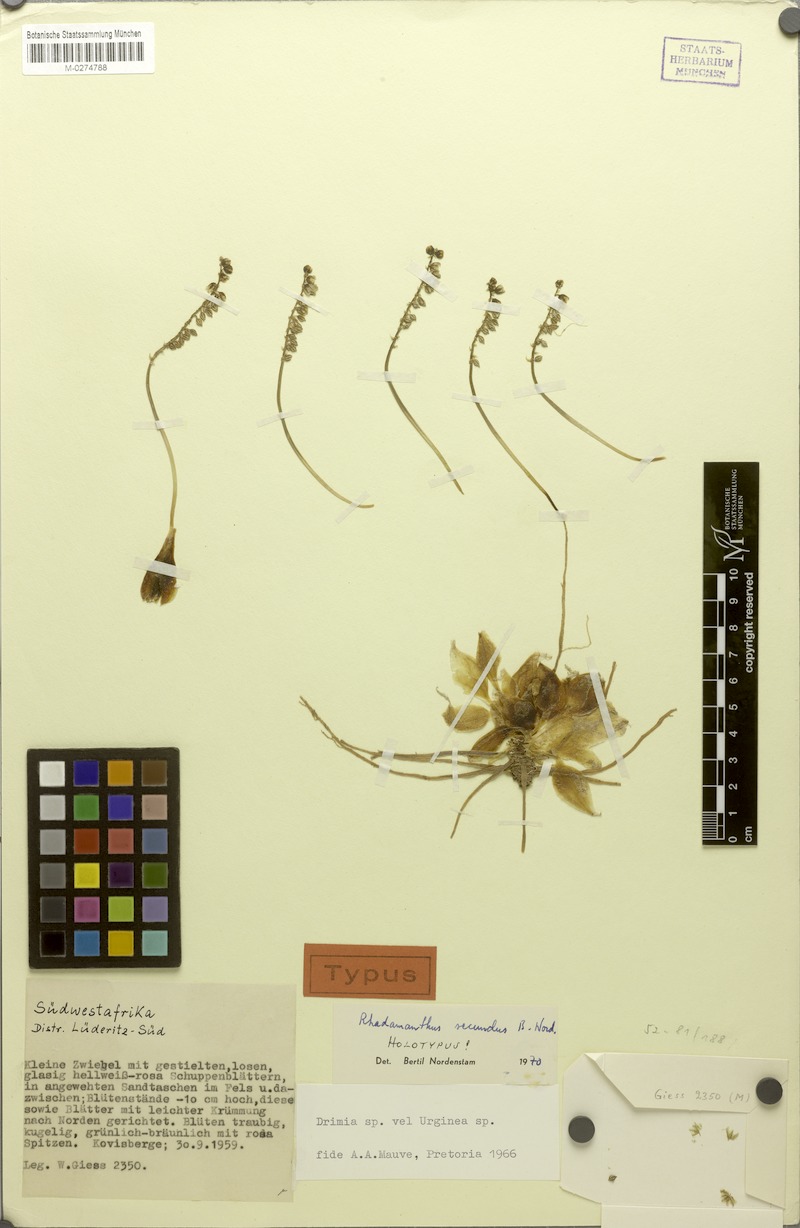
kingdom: Plantae
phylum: Tracheophyta
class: Liliopsida
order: Asparagales
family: Asparagaceae
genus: Drimia
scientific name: Drimia secunda
